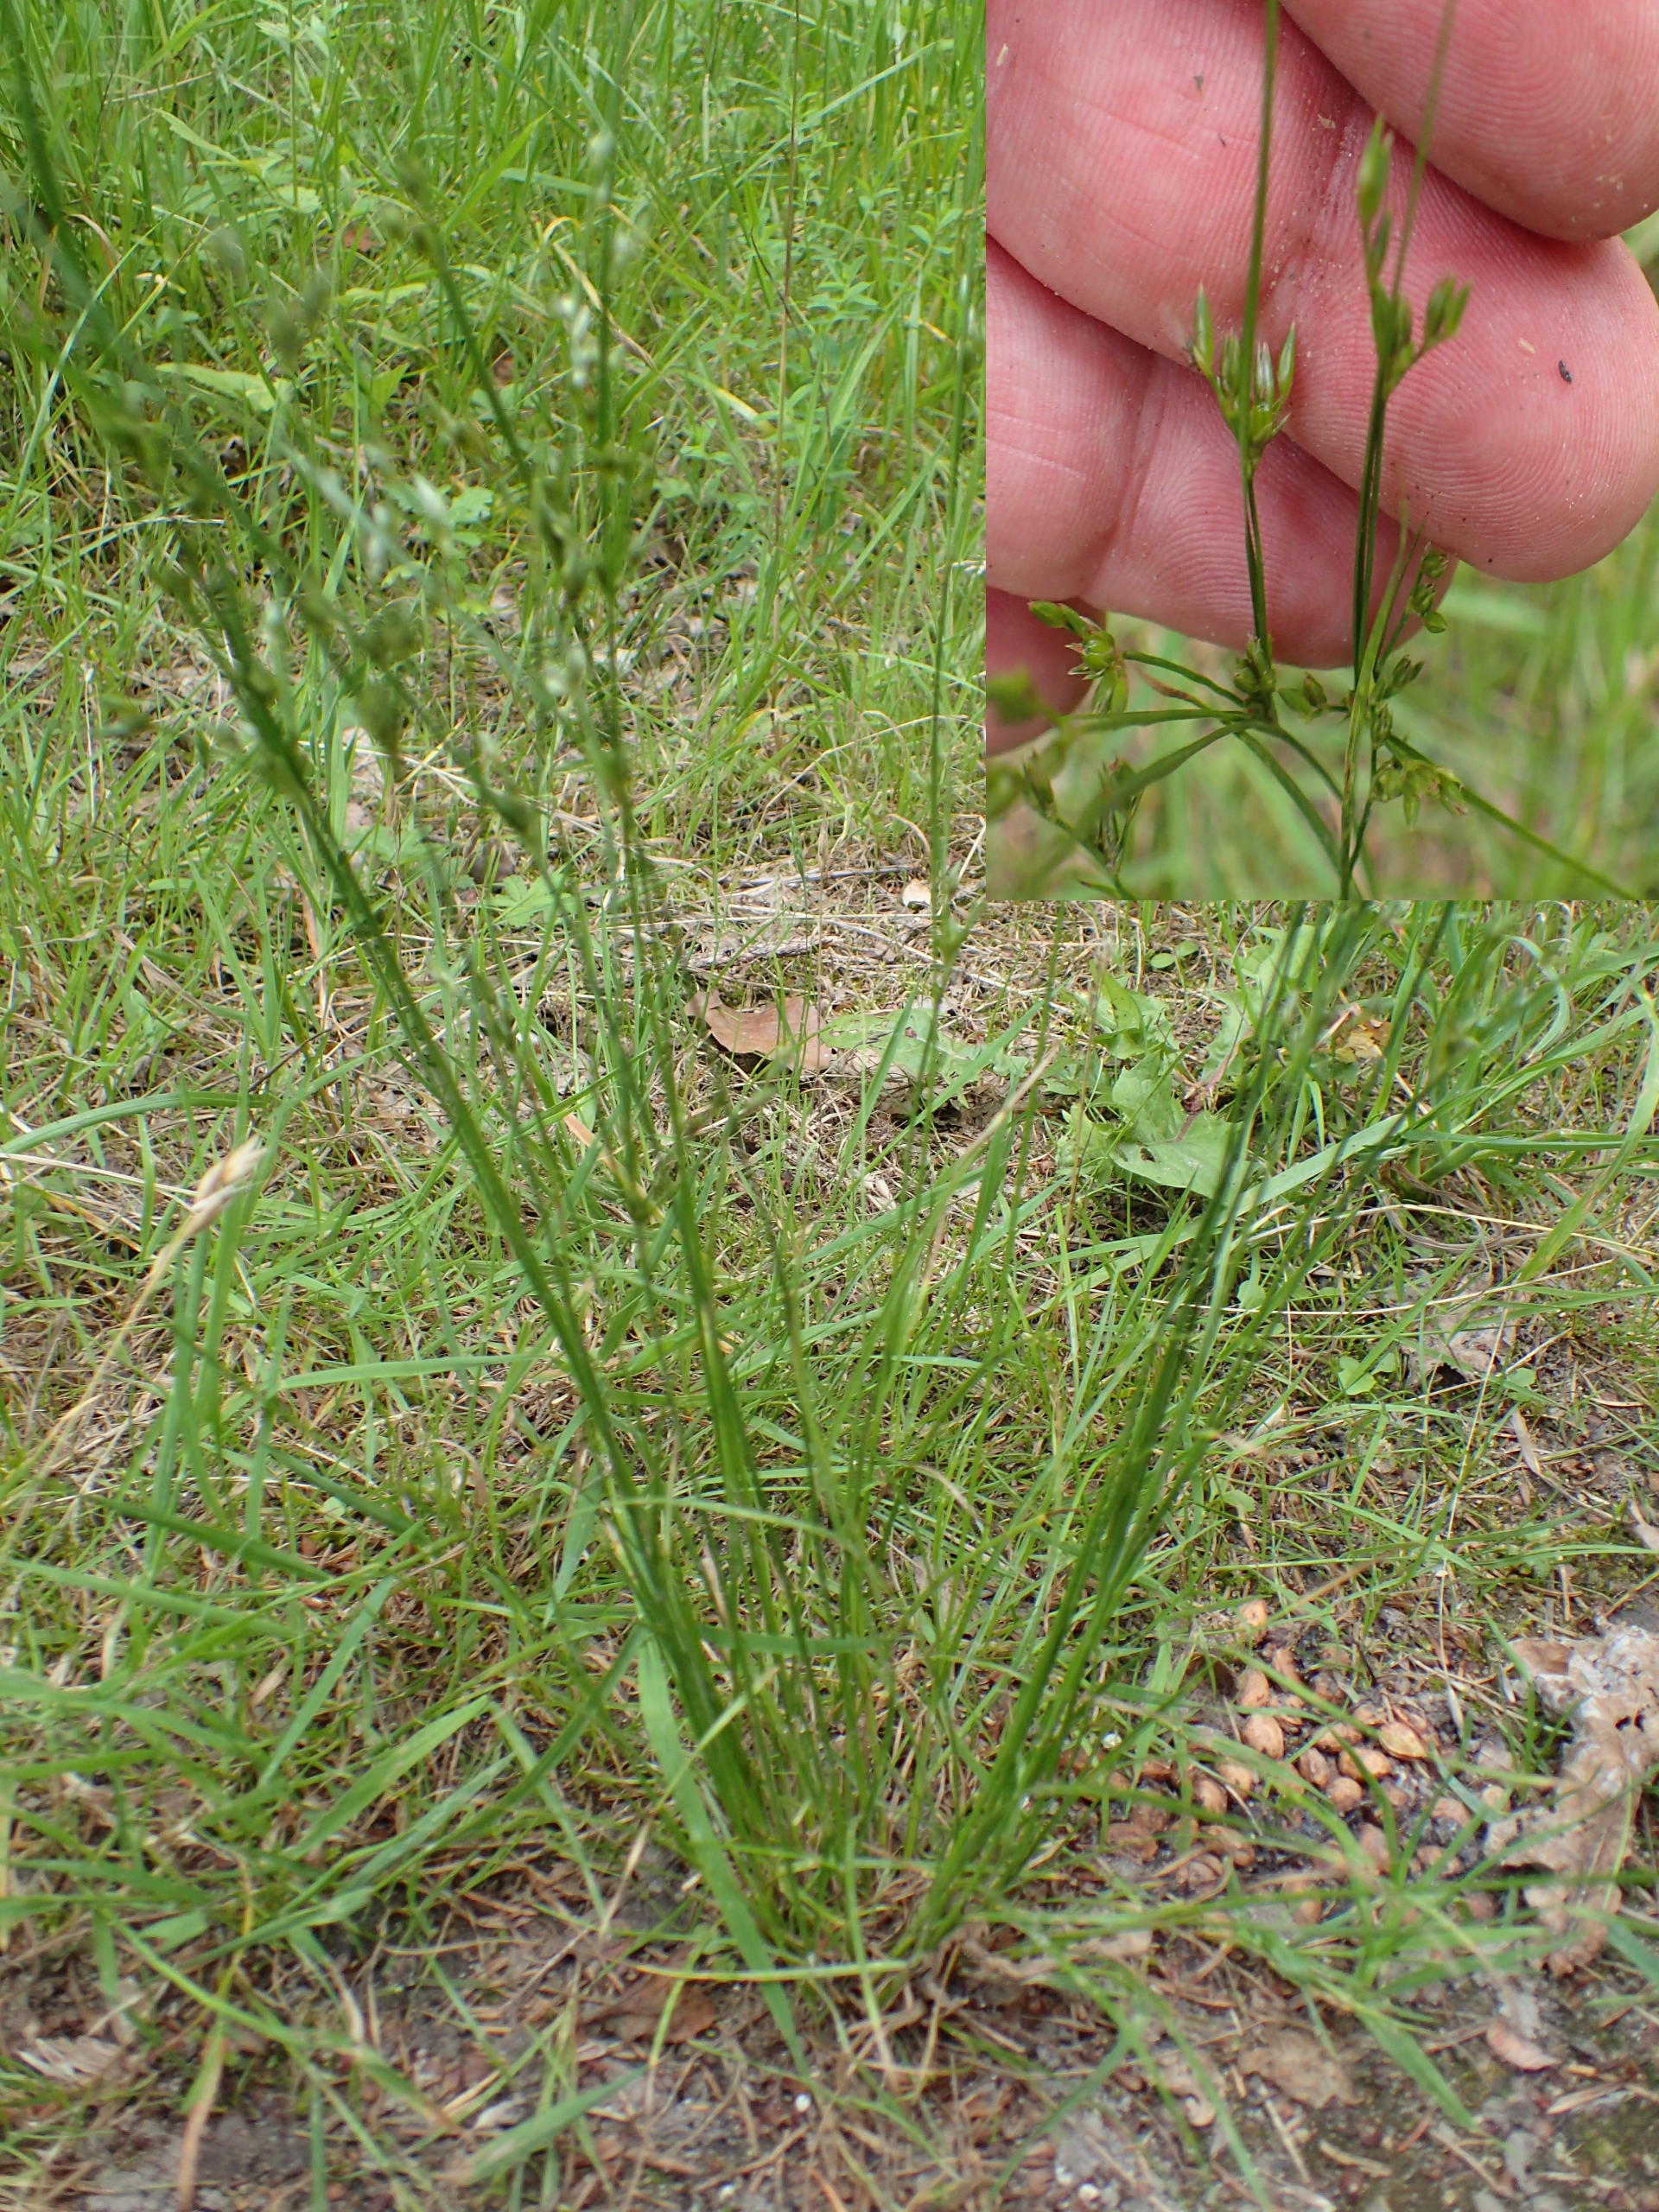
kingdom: Plantae
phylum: Tracheophyta
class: Liliopsida
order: Poales
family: Juncaceae
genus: Juncus
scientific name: Juncus tenuis
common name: Tue-siv
